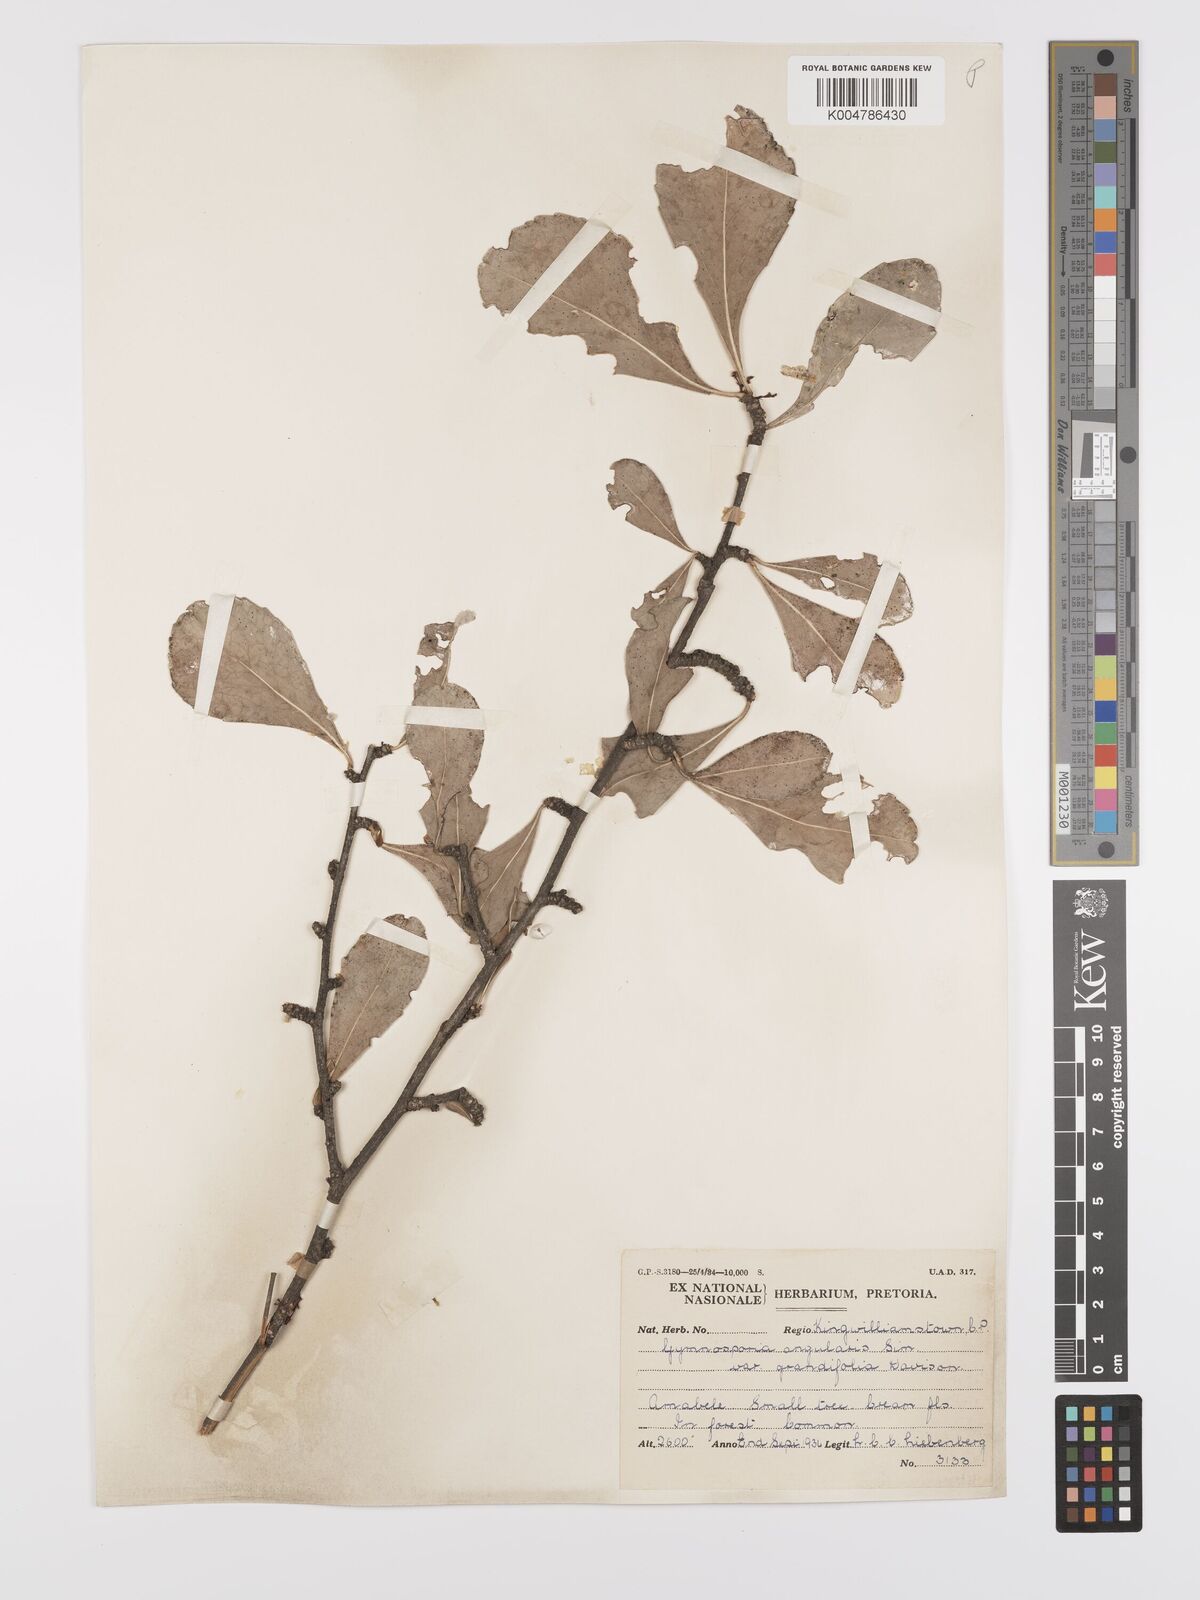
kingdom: Plantae
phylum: Tracheophyta
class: Magnoliopsida
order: Celastrales
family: Celastraceae
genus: Gymnosporia
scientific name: Gymnosporia grandifolia
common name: Large-fruited forest spike-thorn
